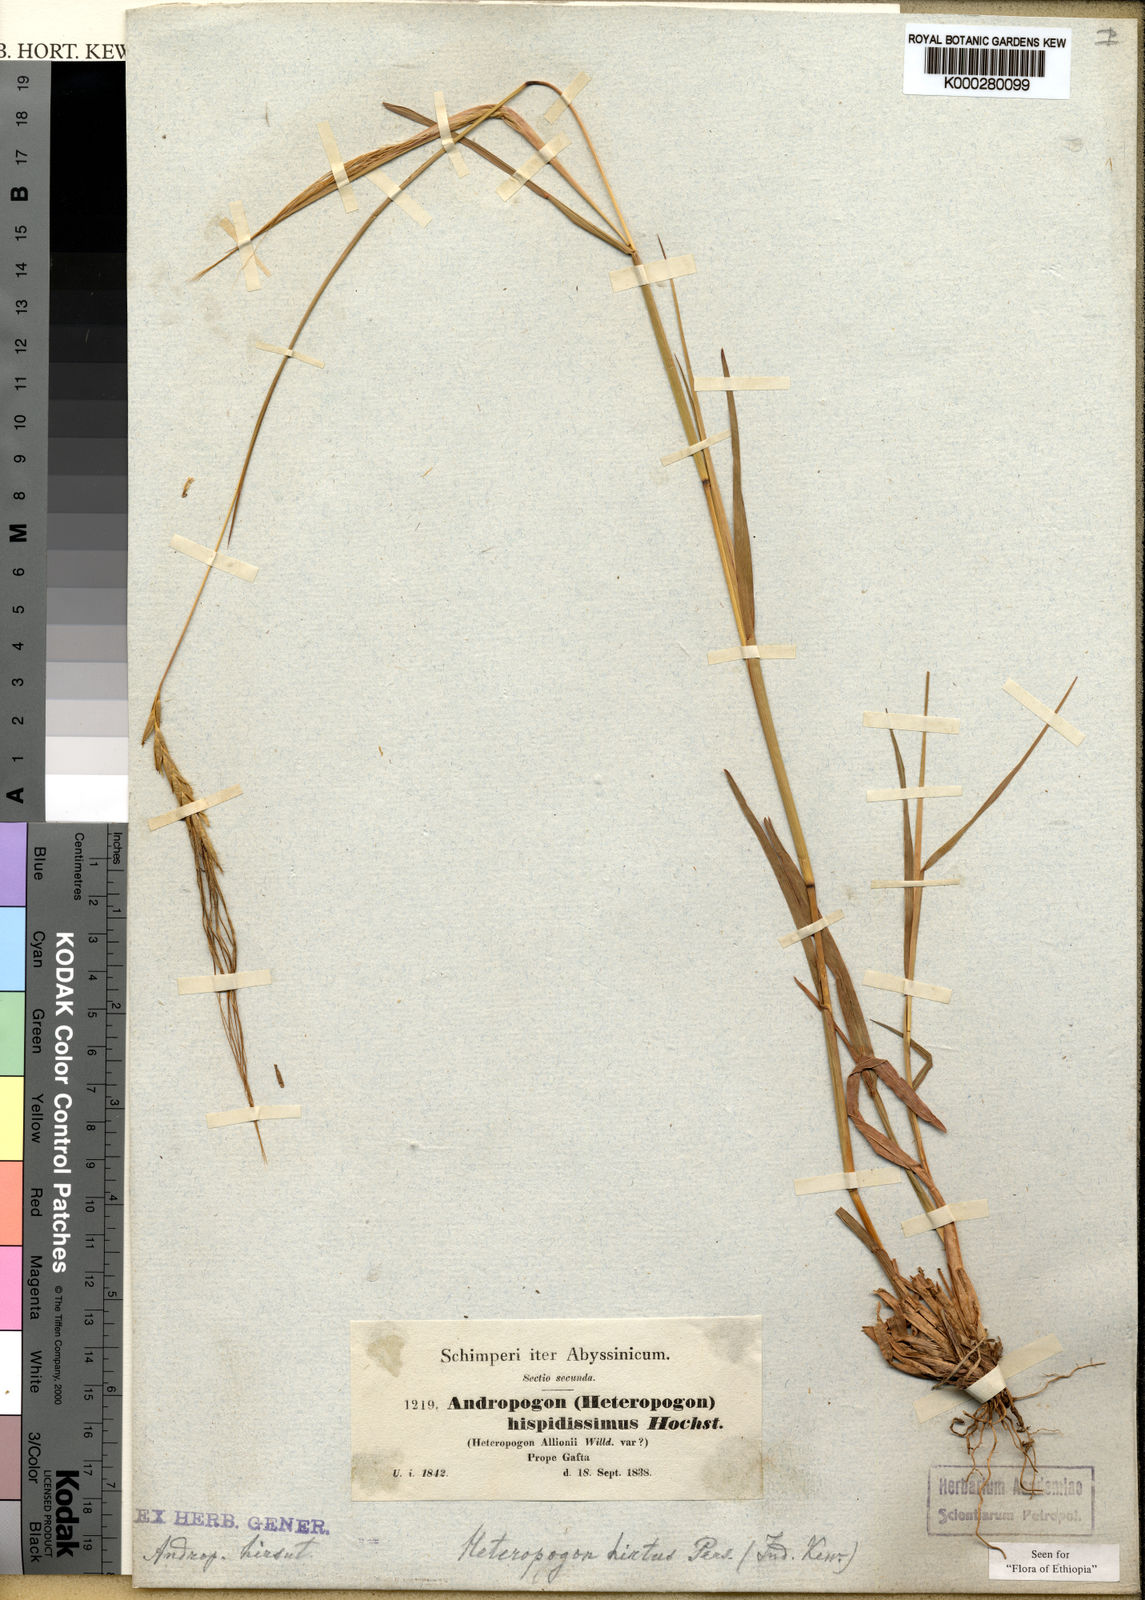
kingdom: Plantae
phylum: Tracheophyta
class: Liliopsida
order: Poales
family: Poaceae
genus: Heteropogon
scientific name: Heteropogon contortus
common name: Tanglehead
